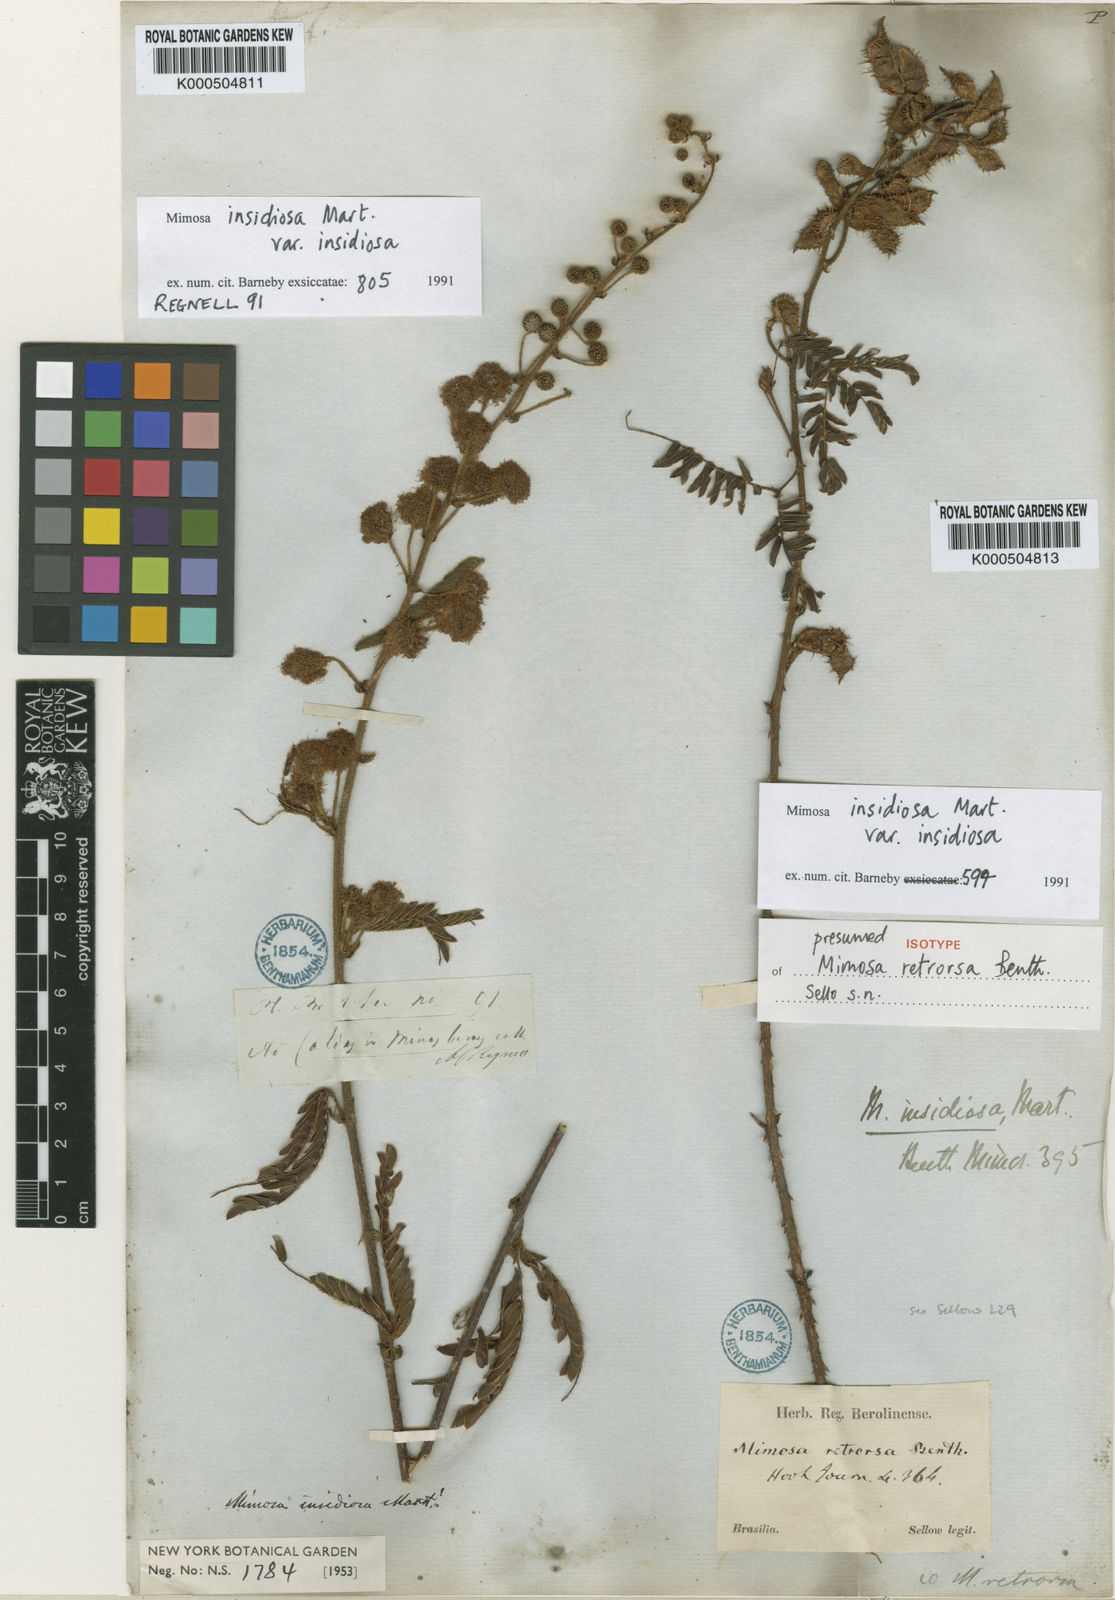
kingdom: Plantae
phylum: Tracheophyta
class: Magnoliopsida
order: Fabales
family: Fabaceae
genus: Mimosa
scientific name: Mimosa insidiosa
